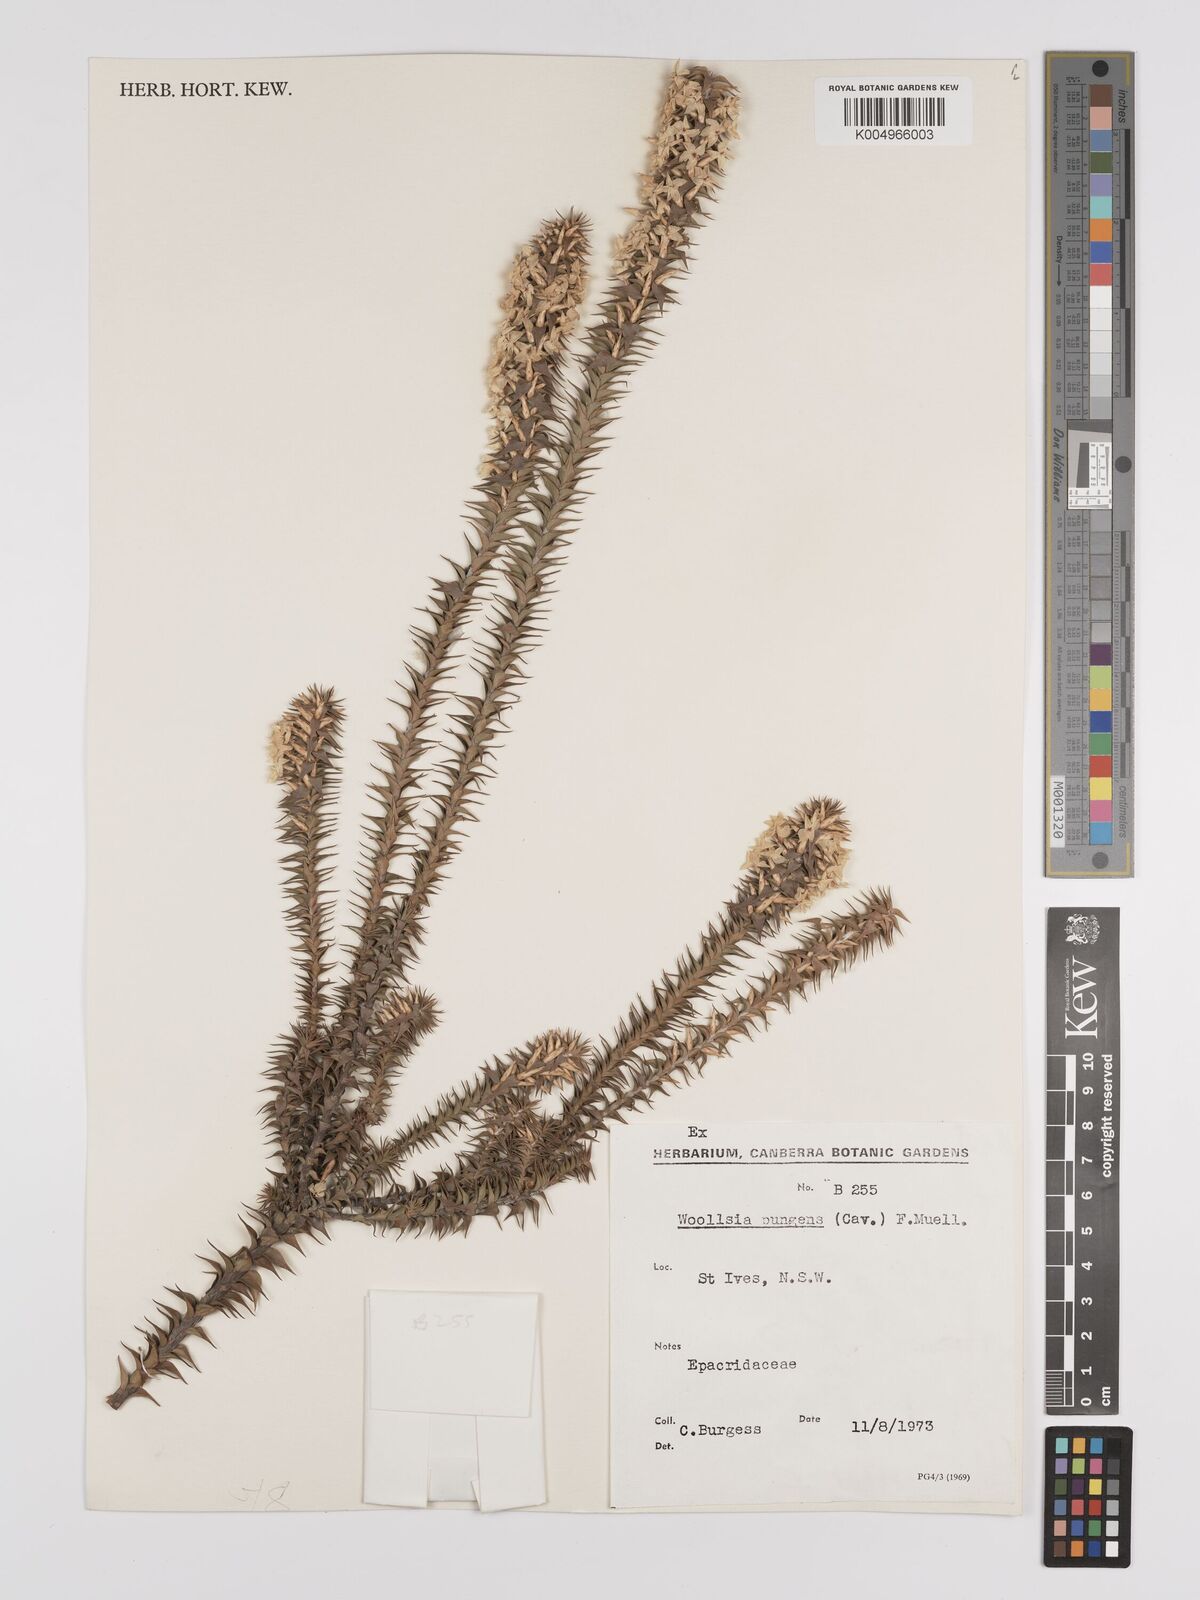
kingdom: Plantae
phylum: Tracheophyta
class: Magnoliopsida
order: Ericales
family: Ericaceae
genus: Woollsia
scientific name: Woollsia pungens
